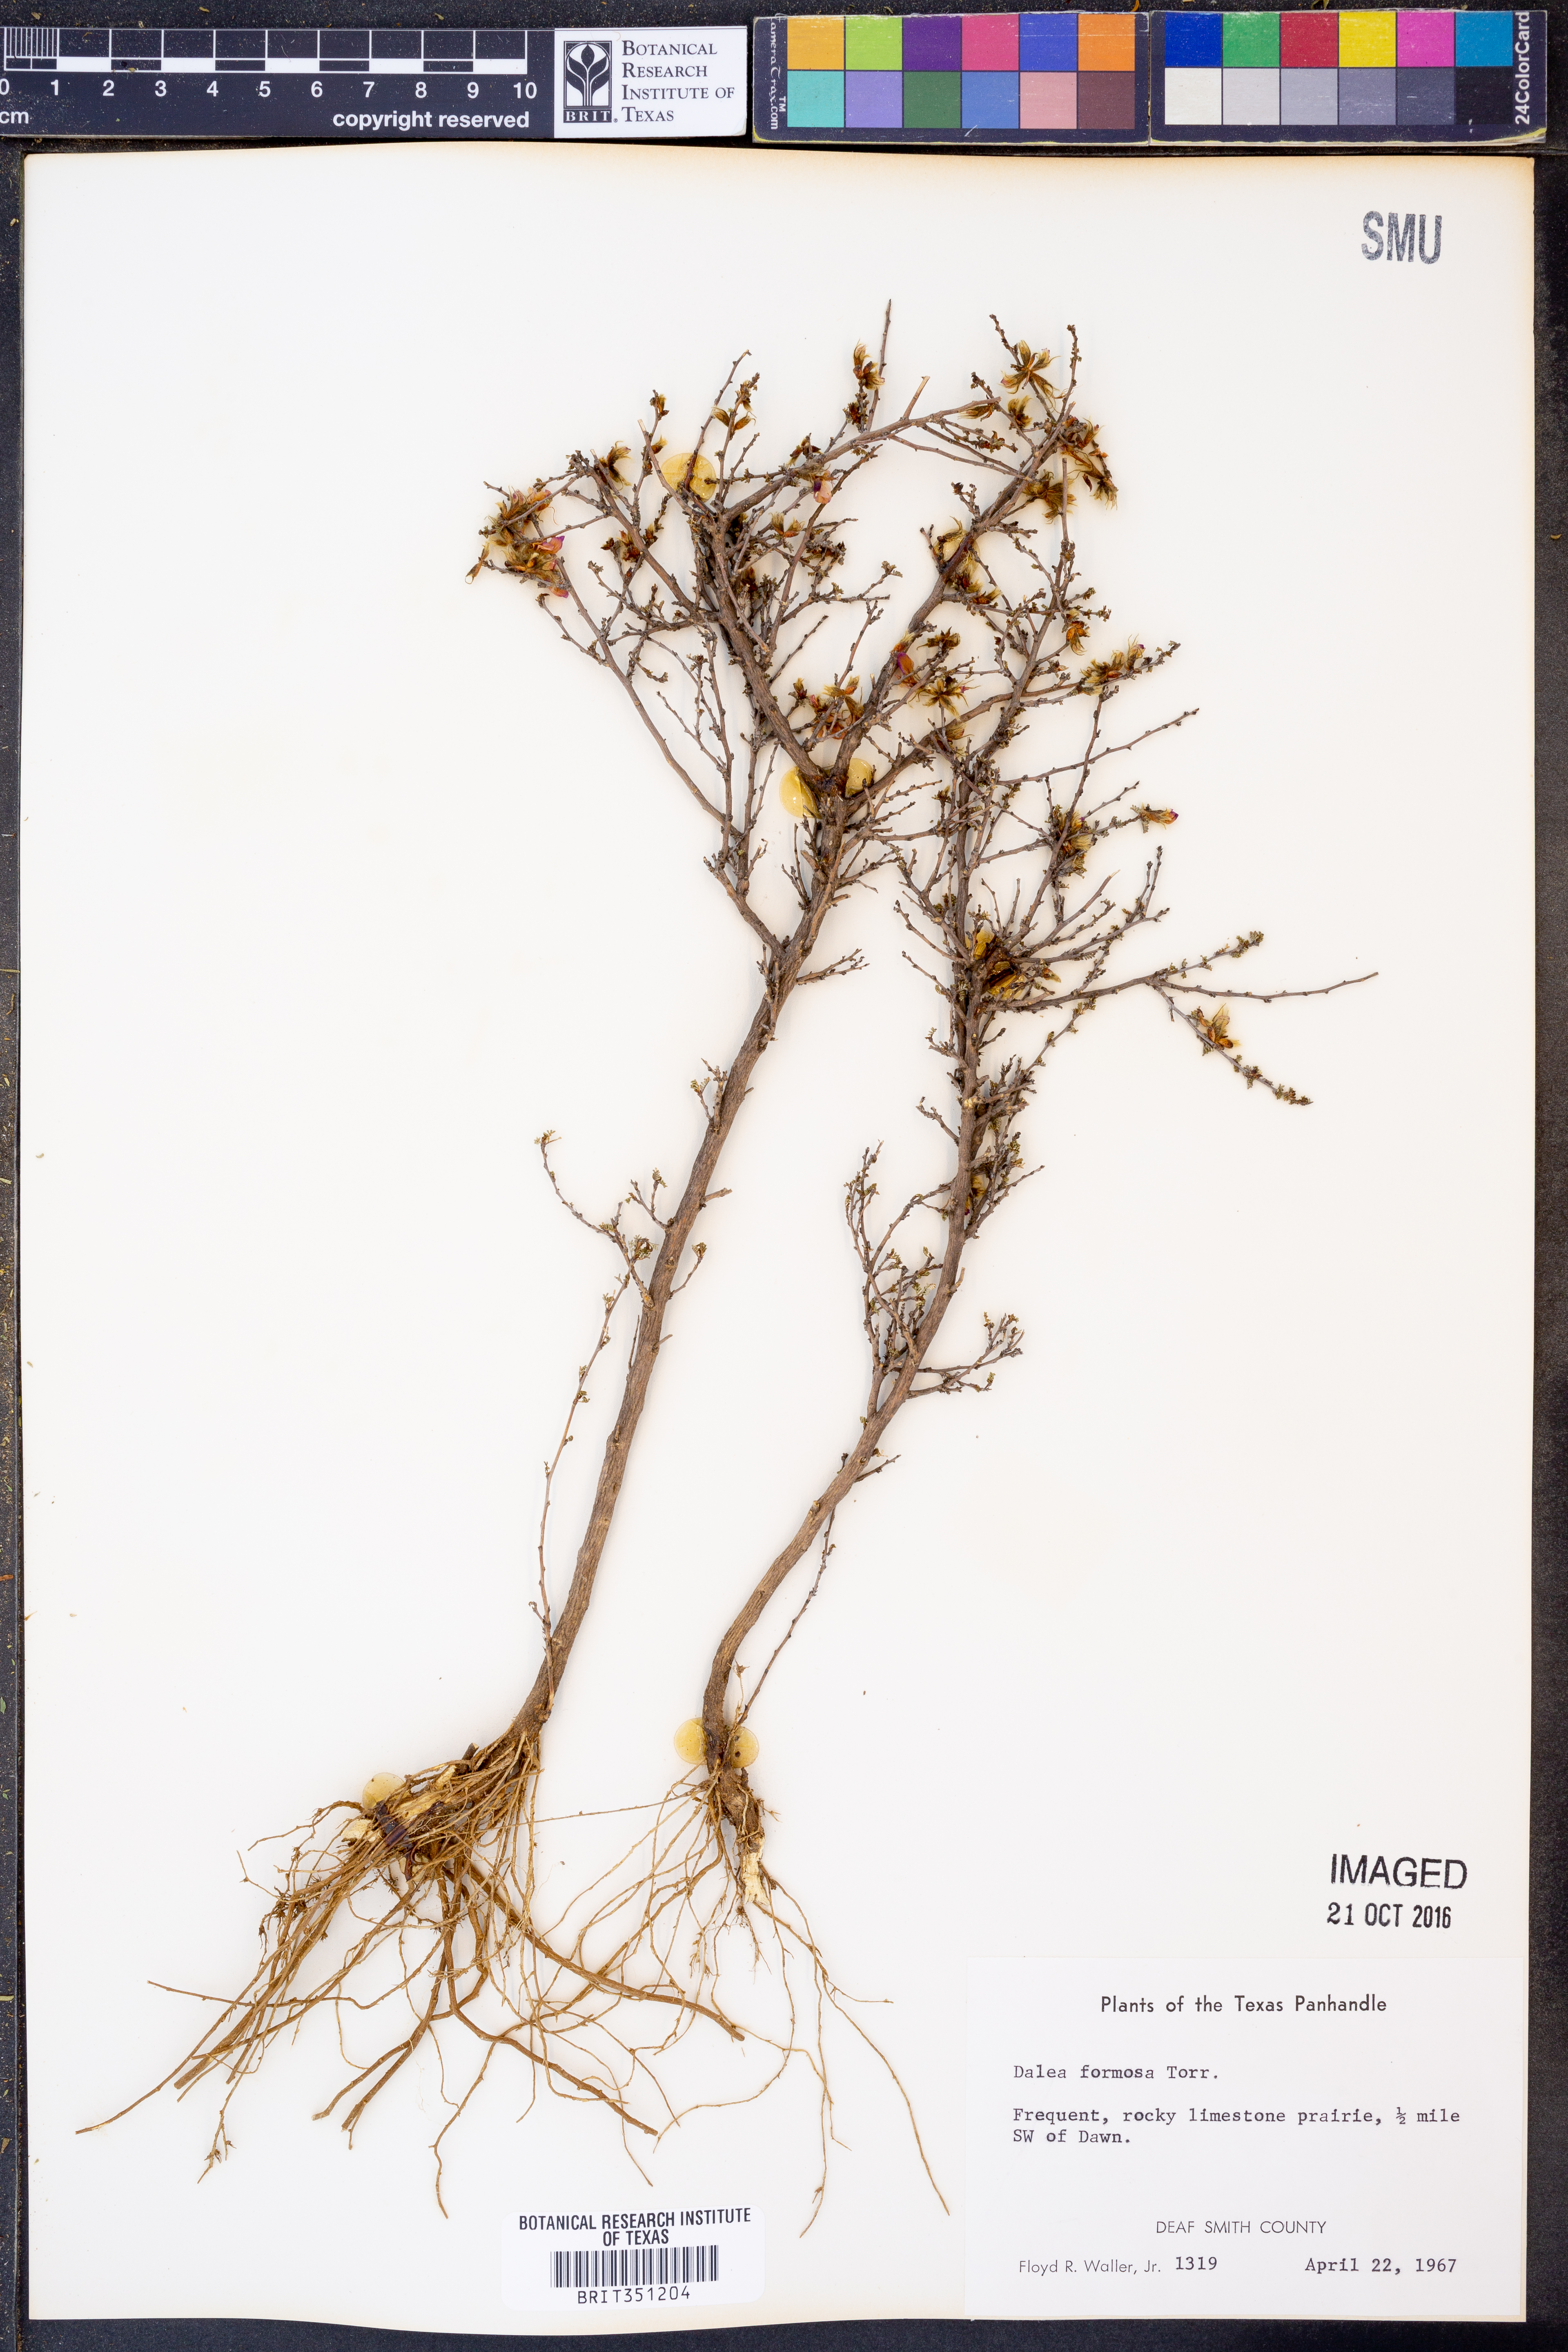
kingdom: Plantae
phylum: Tracheophyta
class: Magnoliopsida
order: Fabales
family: Fabaceae
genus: Dalea
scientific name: Dalea formosa
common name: Feather-plume dalea
